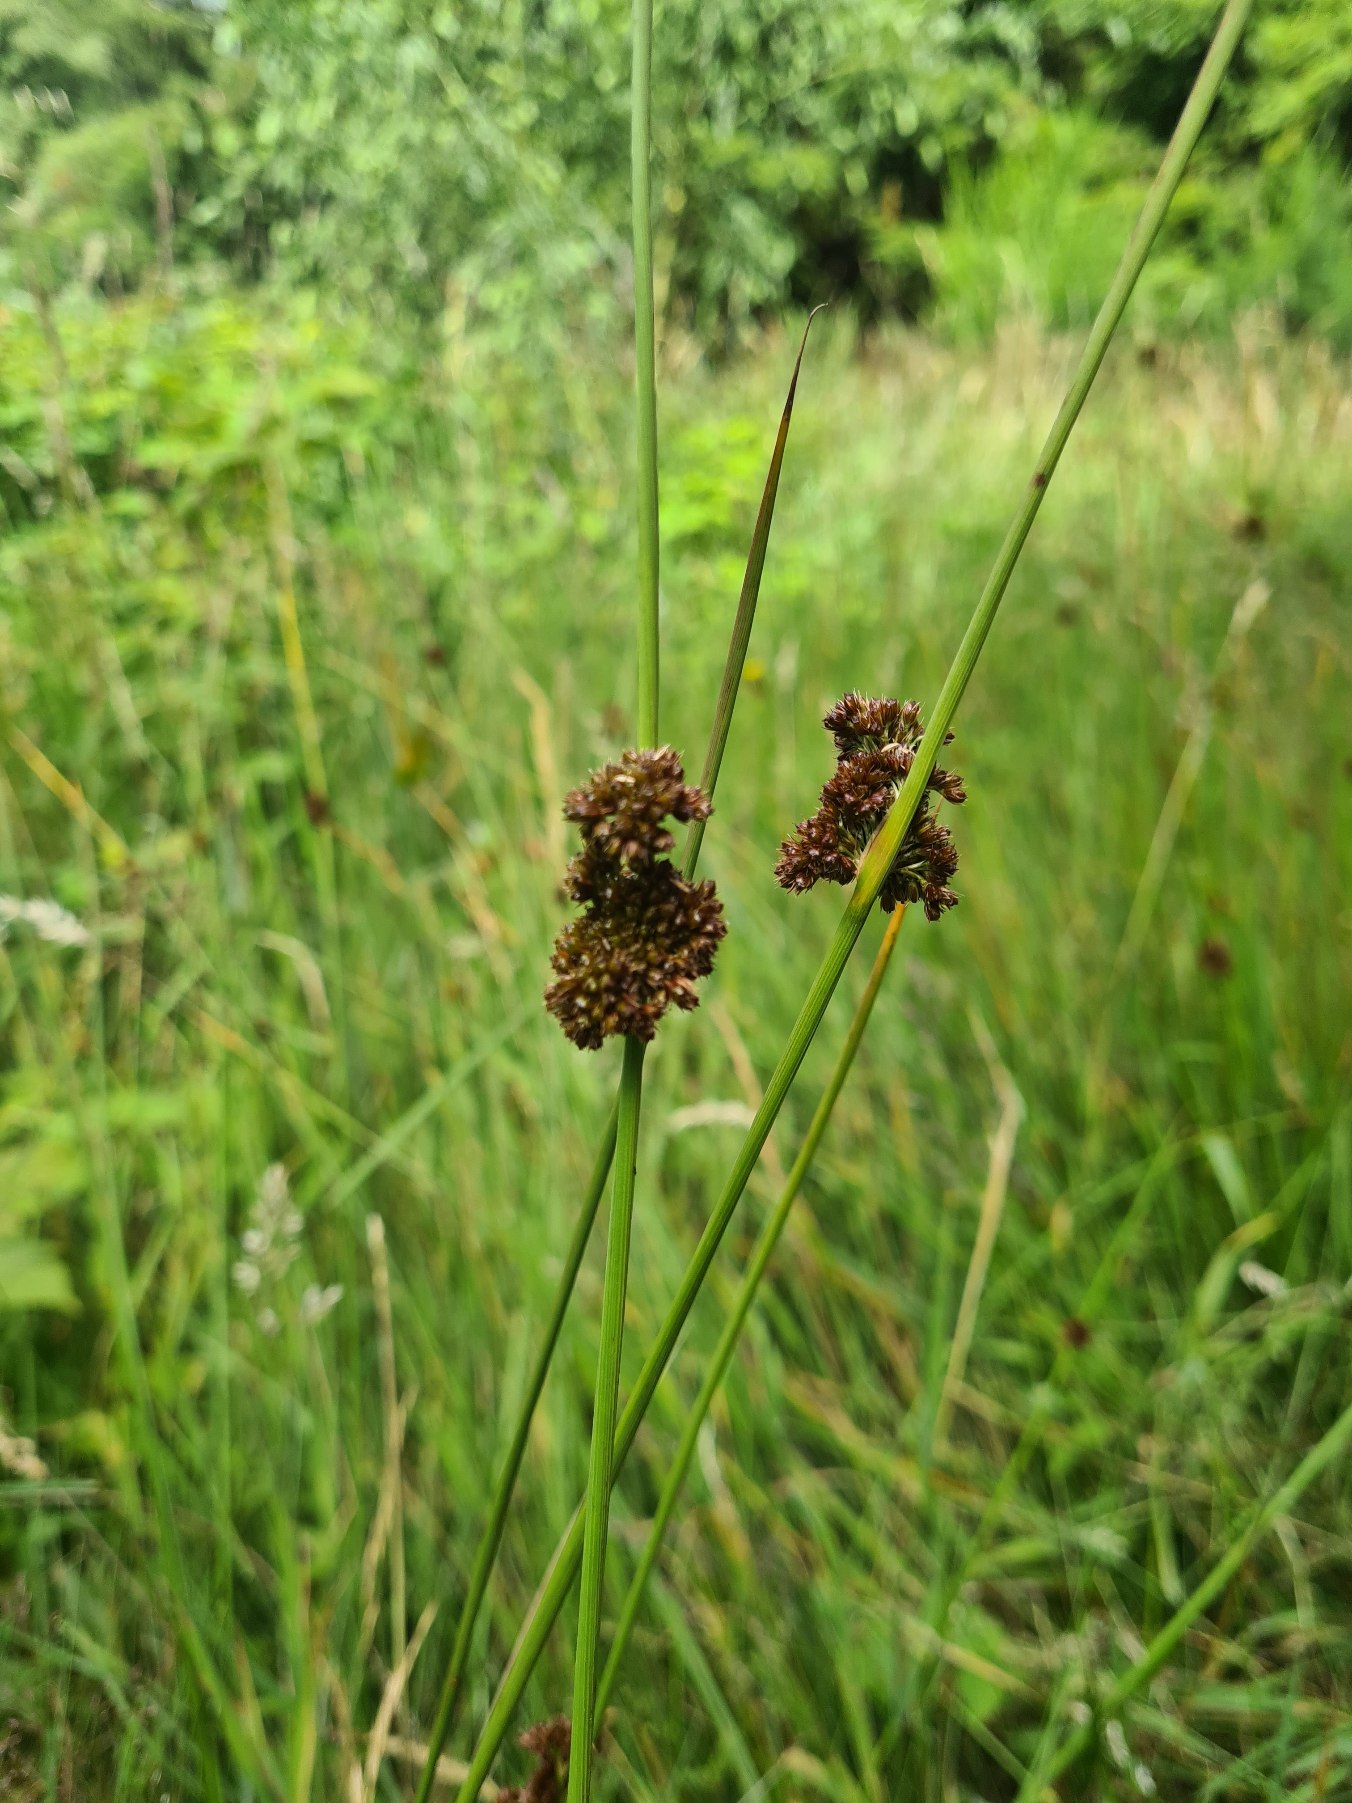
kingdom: Plantae
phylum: Tracheophyta
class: Liliopsida
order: Poales
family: Juncaceae
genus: Juncus
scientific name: Juncus conglomeratus
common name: Knop-siv
